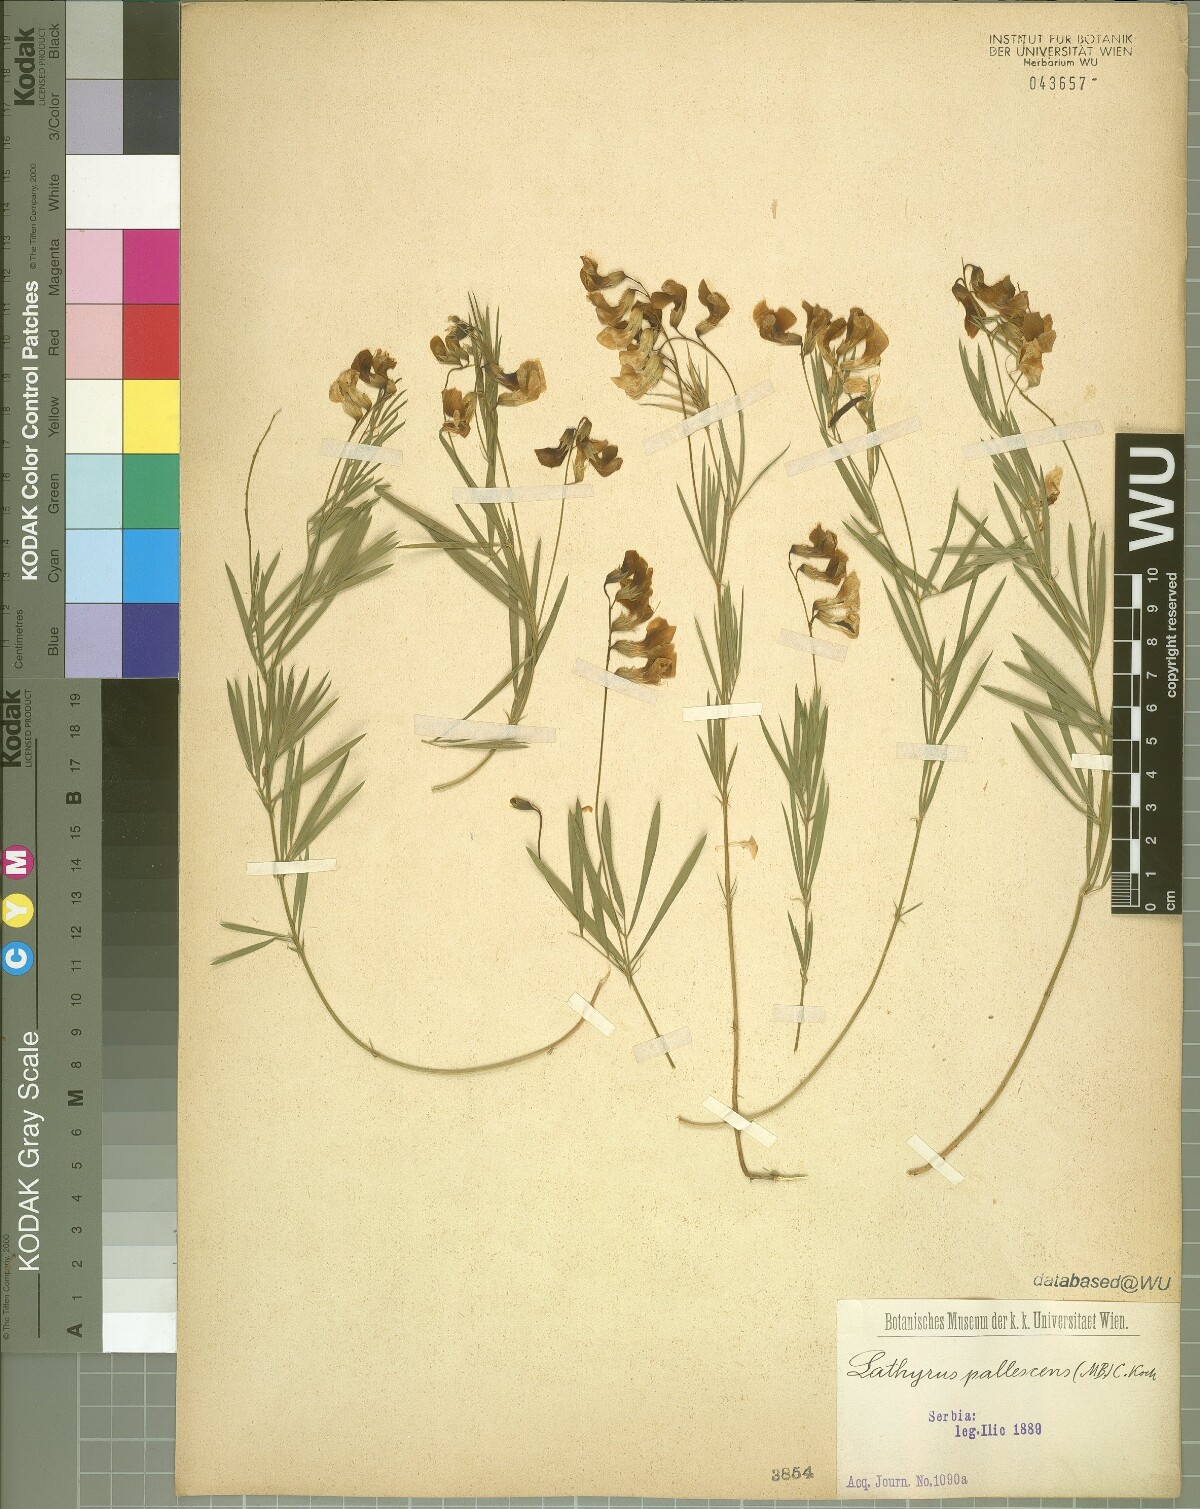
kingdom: Plantae
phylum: Tracheophyta
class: Magnoliopsida
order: Fabales
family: Fabaceae
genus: Lathyrus
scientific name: Lathyrus pallescens
